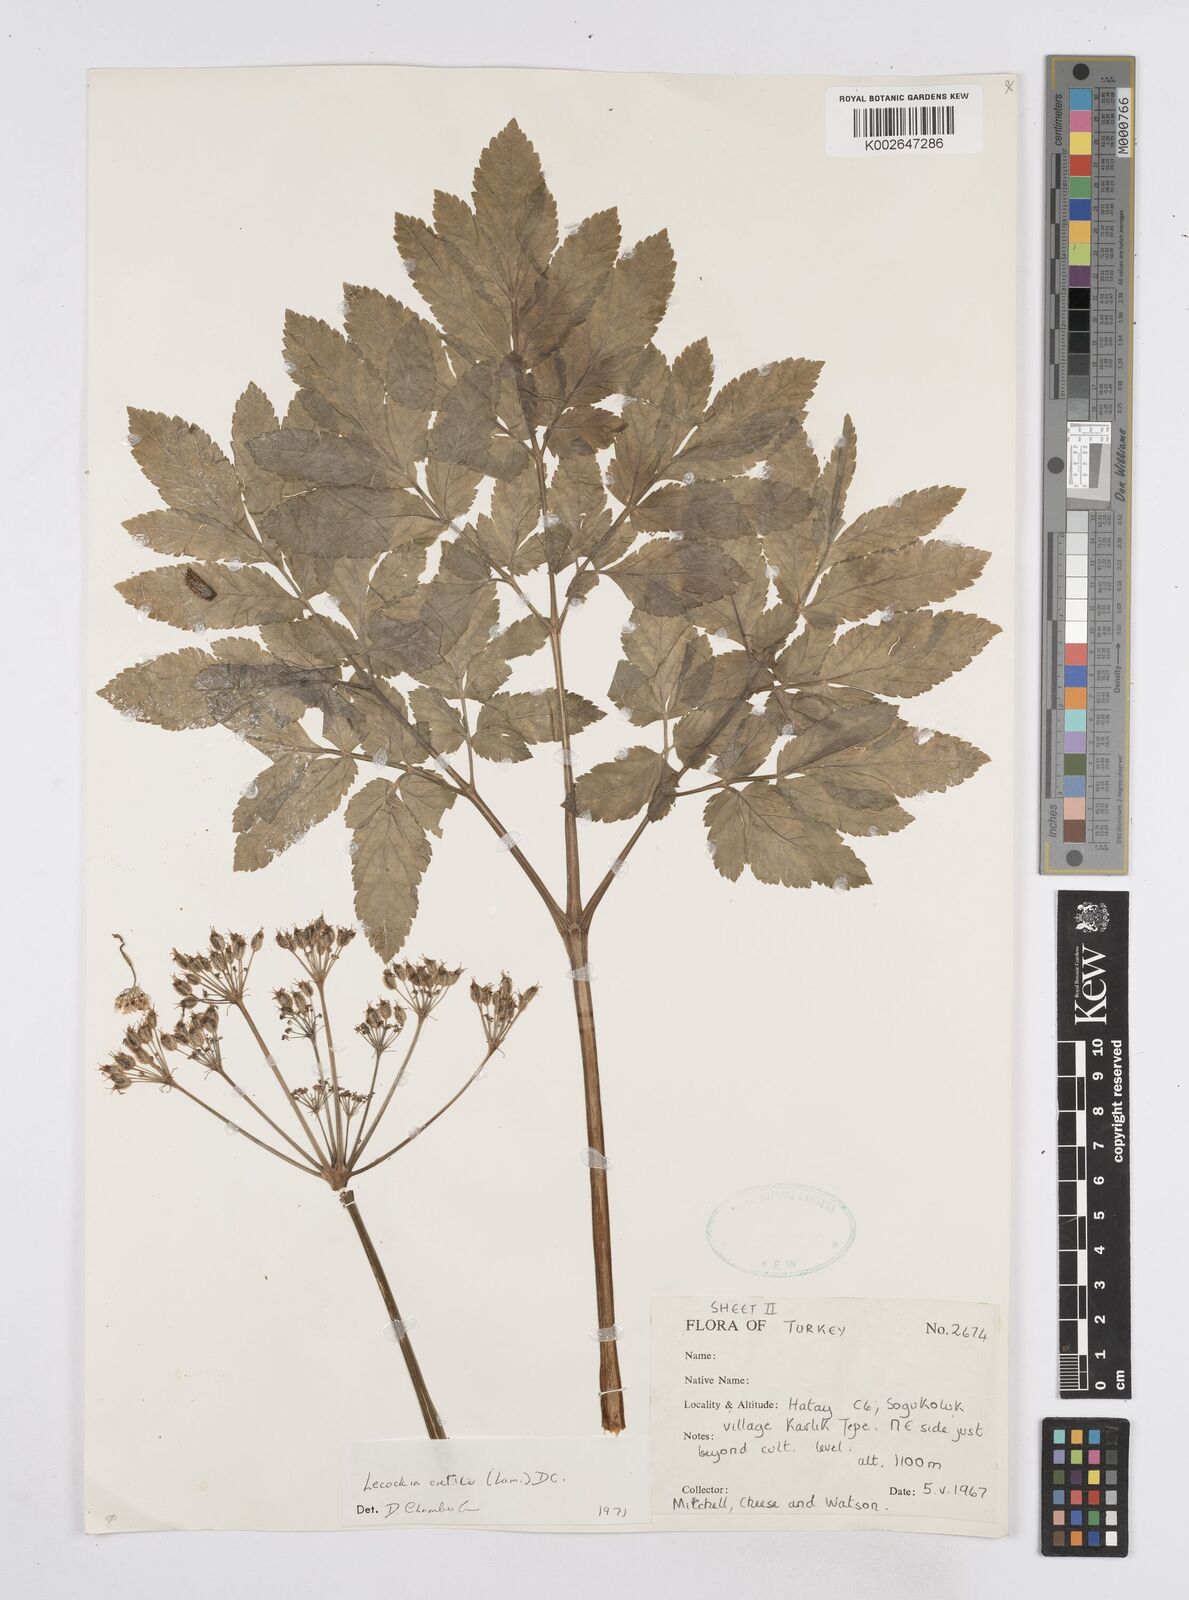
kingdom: Plantae
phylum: Tracheophyta
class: Magnoliopsida
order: Apiales
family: Apiaceae
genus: Lecokia
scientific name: Lecokia cretica
